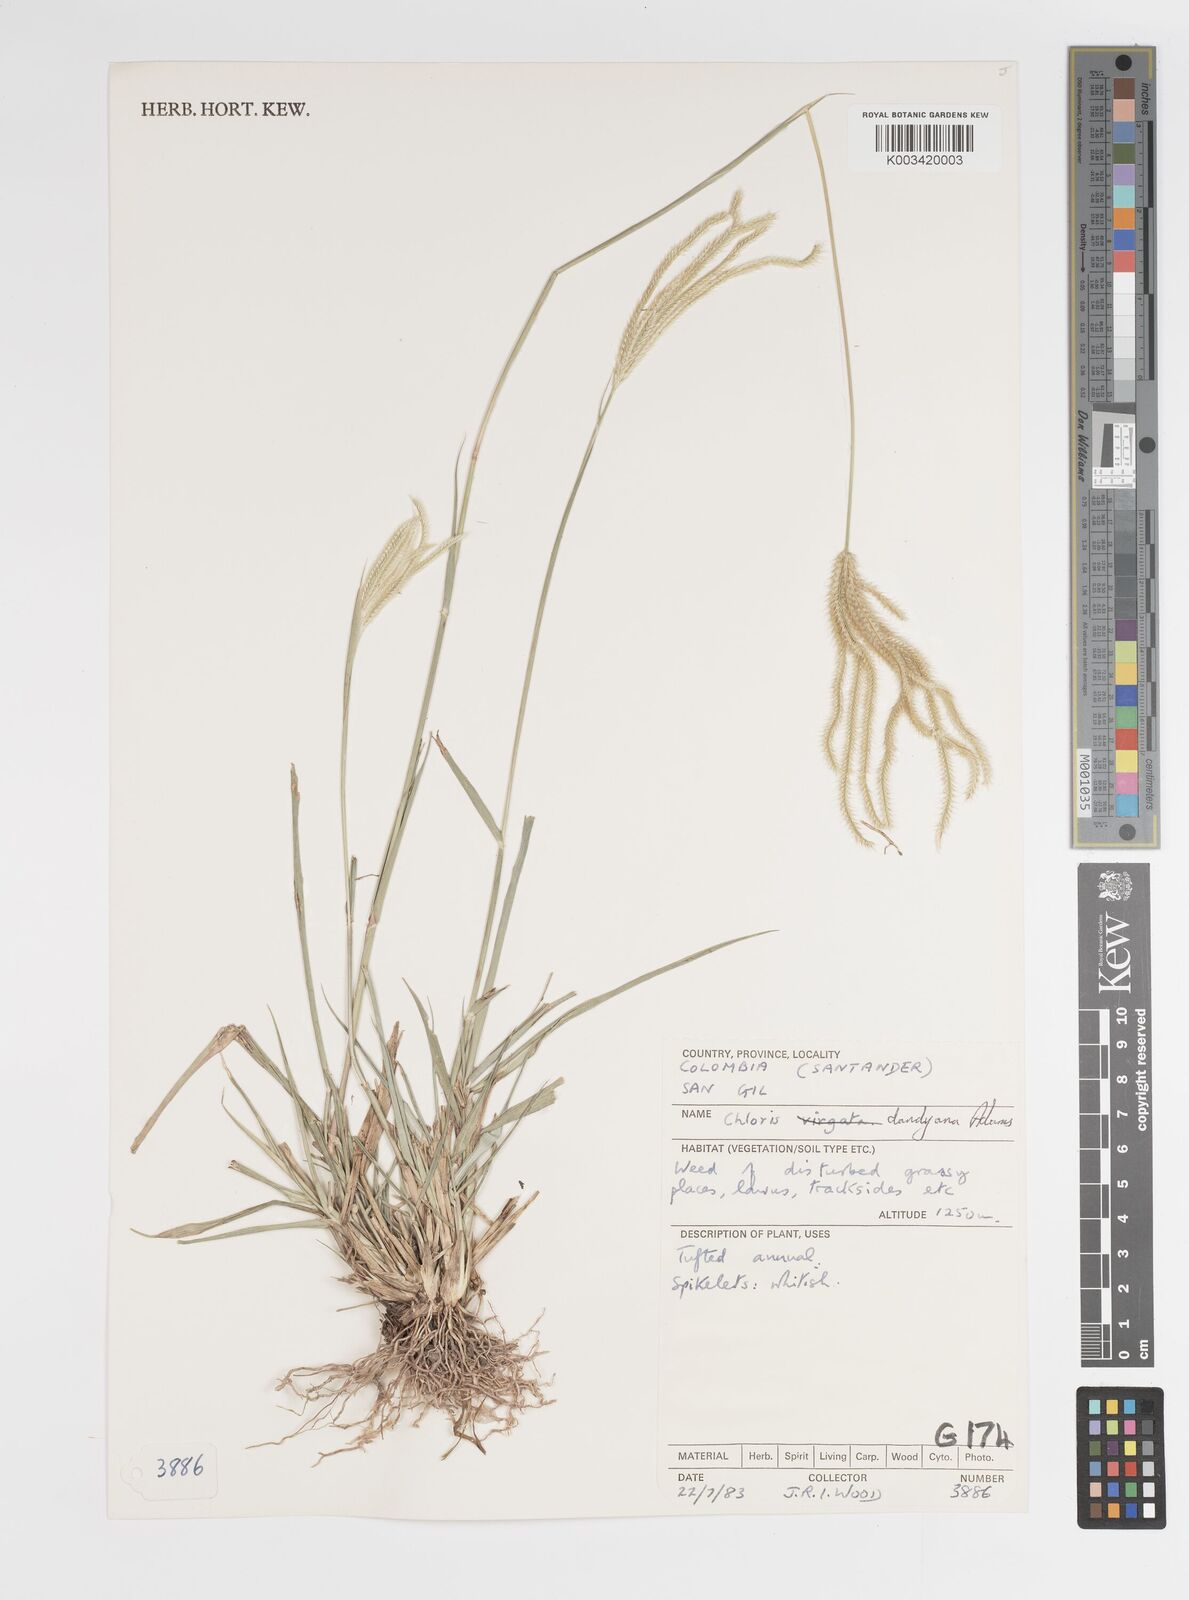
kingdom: Plantae
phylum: Tracheophyta
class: Liliopsida
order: Poales
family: Poaceae
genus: Stapfochloa
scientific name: Stapfochloa elata
